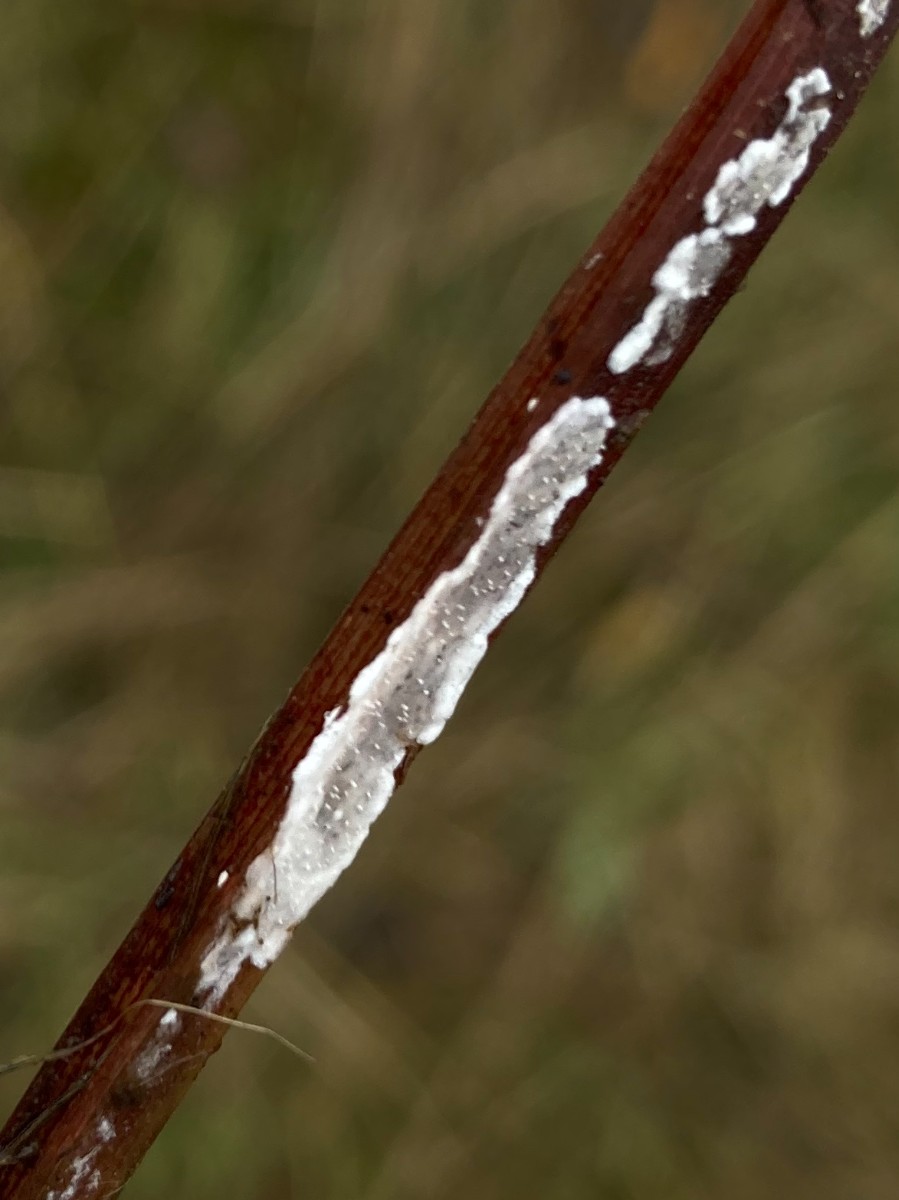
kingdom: Fungi
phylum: Basidiomycota
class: Agaricomycetes
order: Polyporales
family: Polyporaceae
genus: Epithele
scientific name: Epithele typhae
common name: starpig
